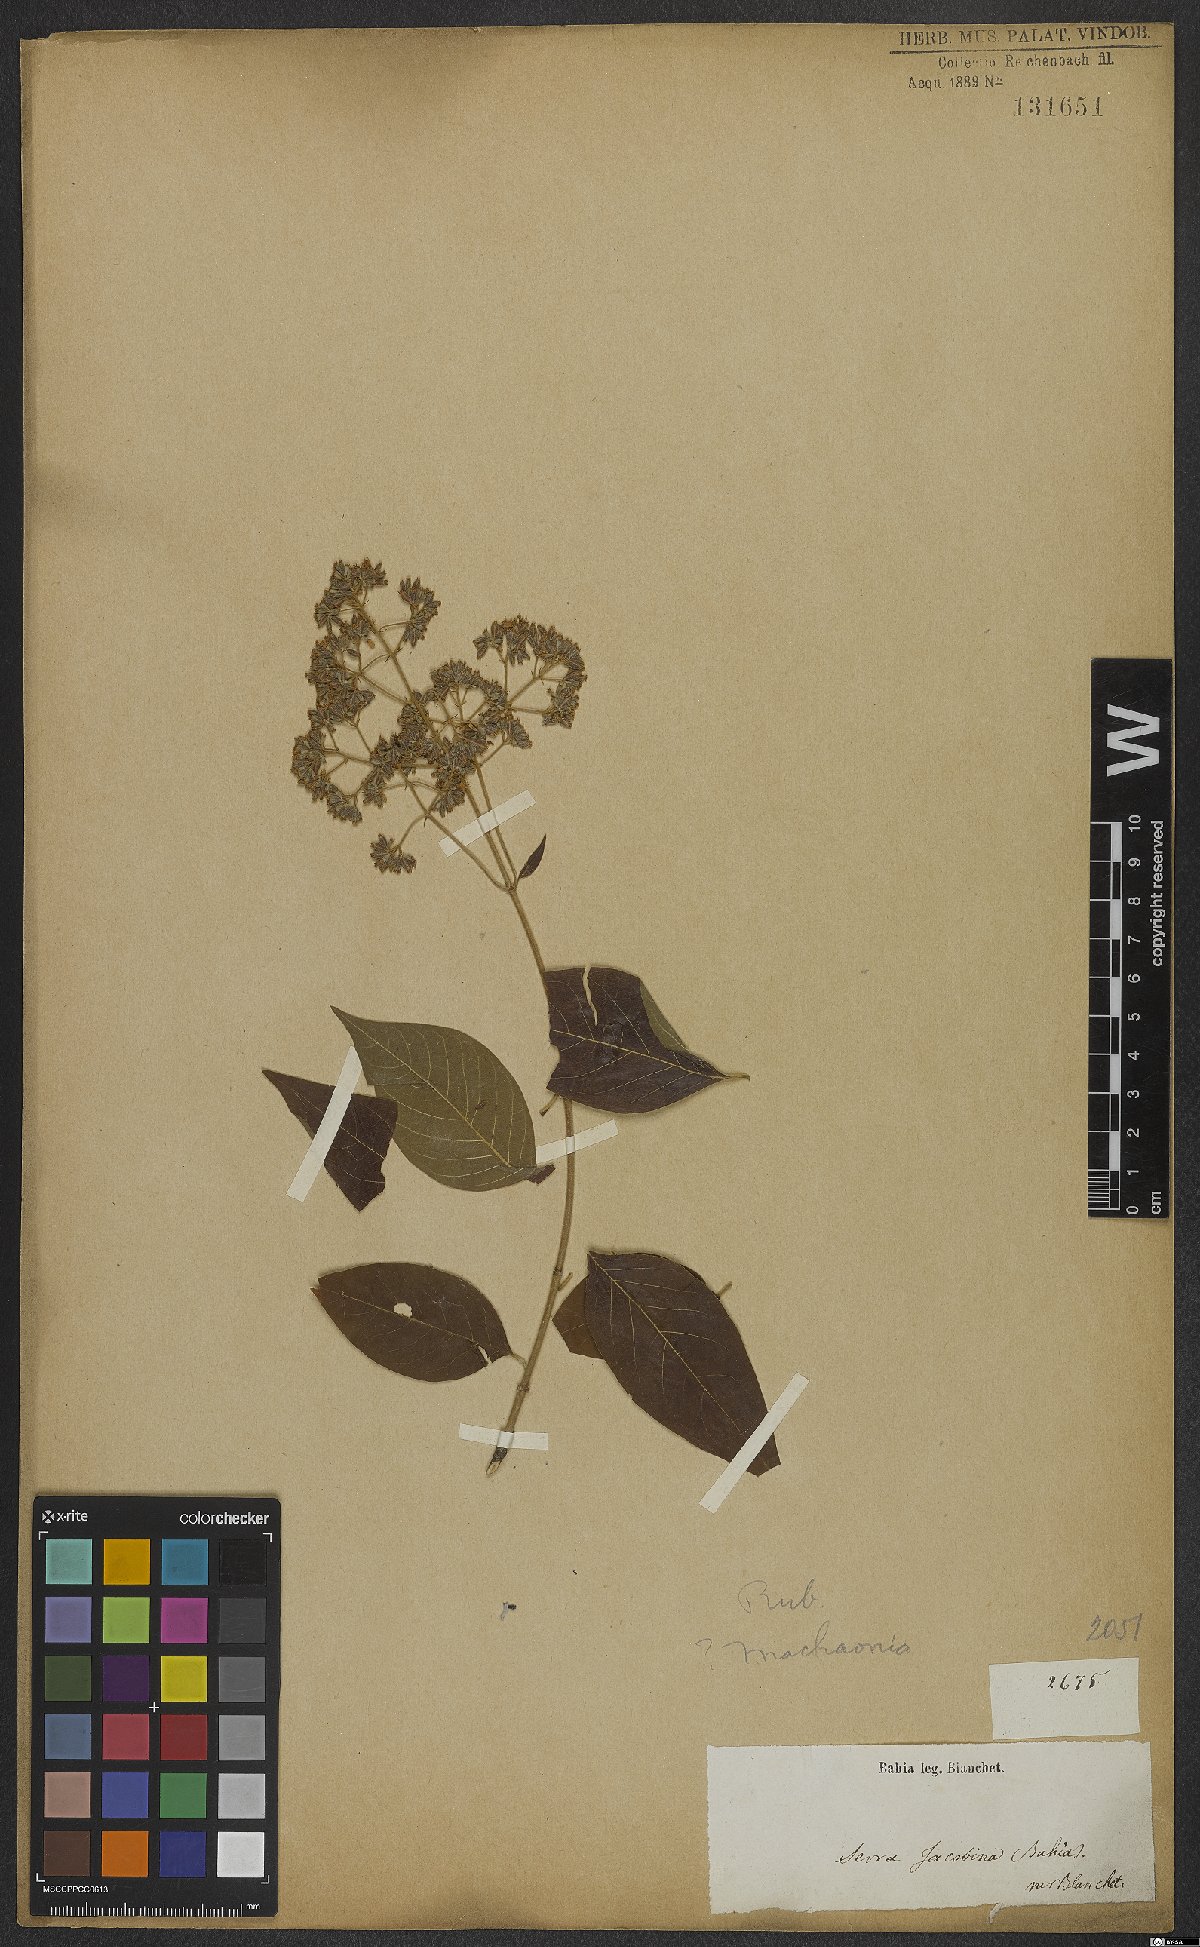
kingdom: Plantae
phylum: Tracheophyta
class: Magnoliopsida
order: Gentianales
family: Rubiaceae
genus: Machaonia
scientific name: Machaonia
